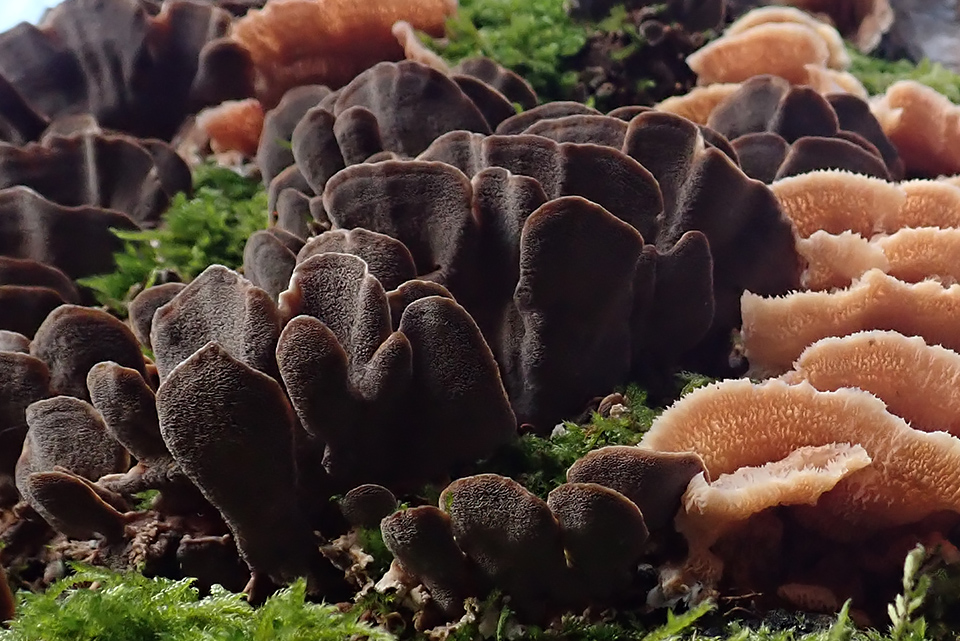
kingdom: Fungi
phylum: Basidiomycota
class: Agaricomycetes
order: Polyporales
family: Phanerochaetaceae
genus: Bjerkandera
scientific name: Bjerkandera adusta
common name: sveden sodporesvamp
